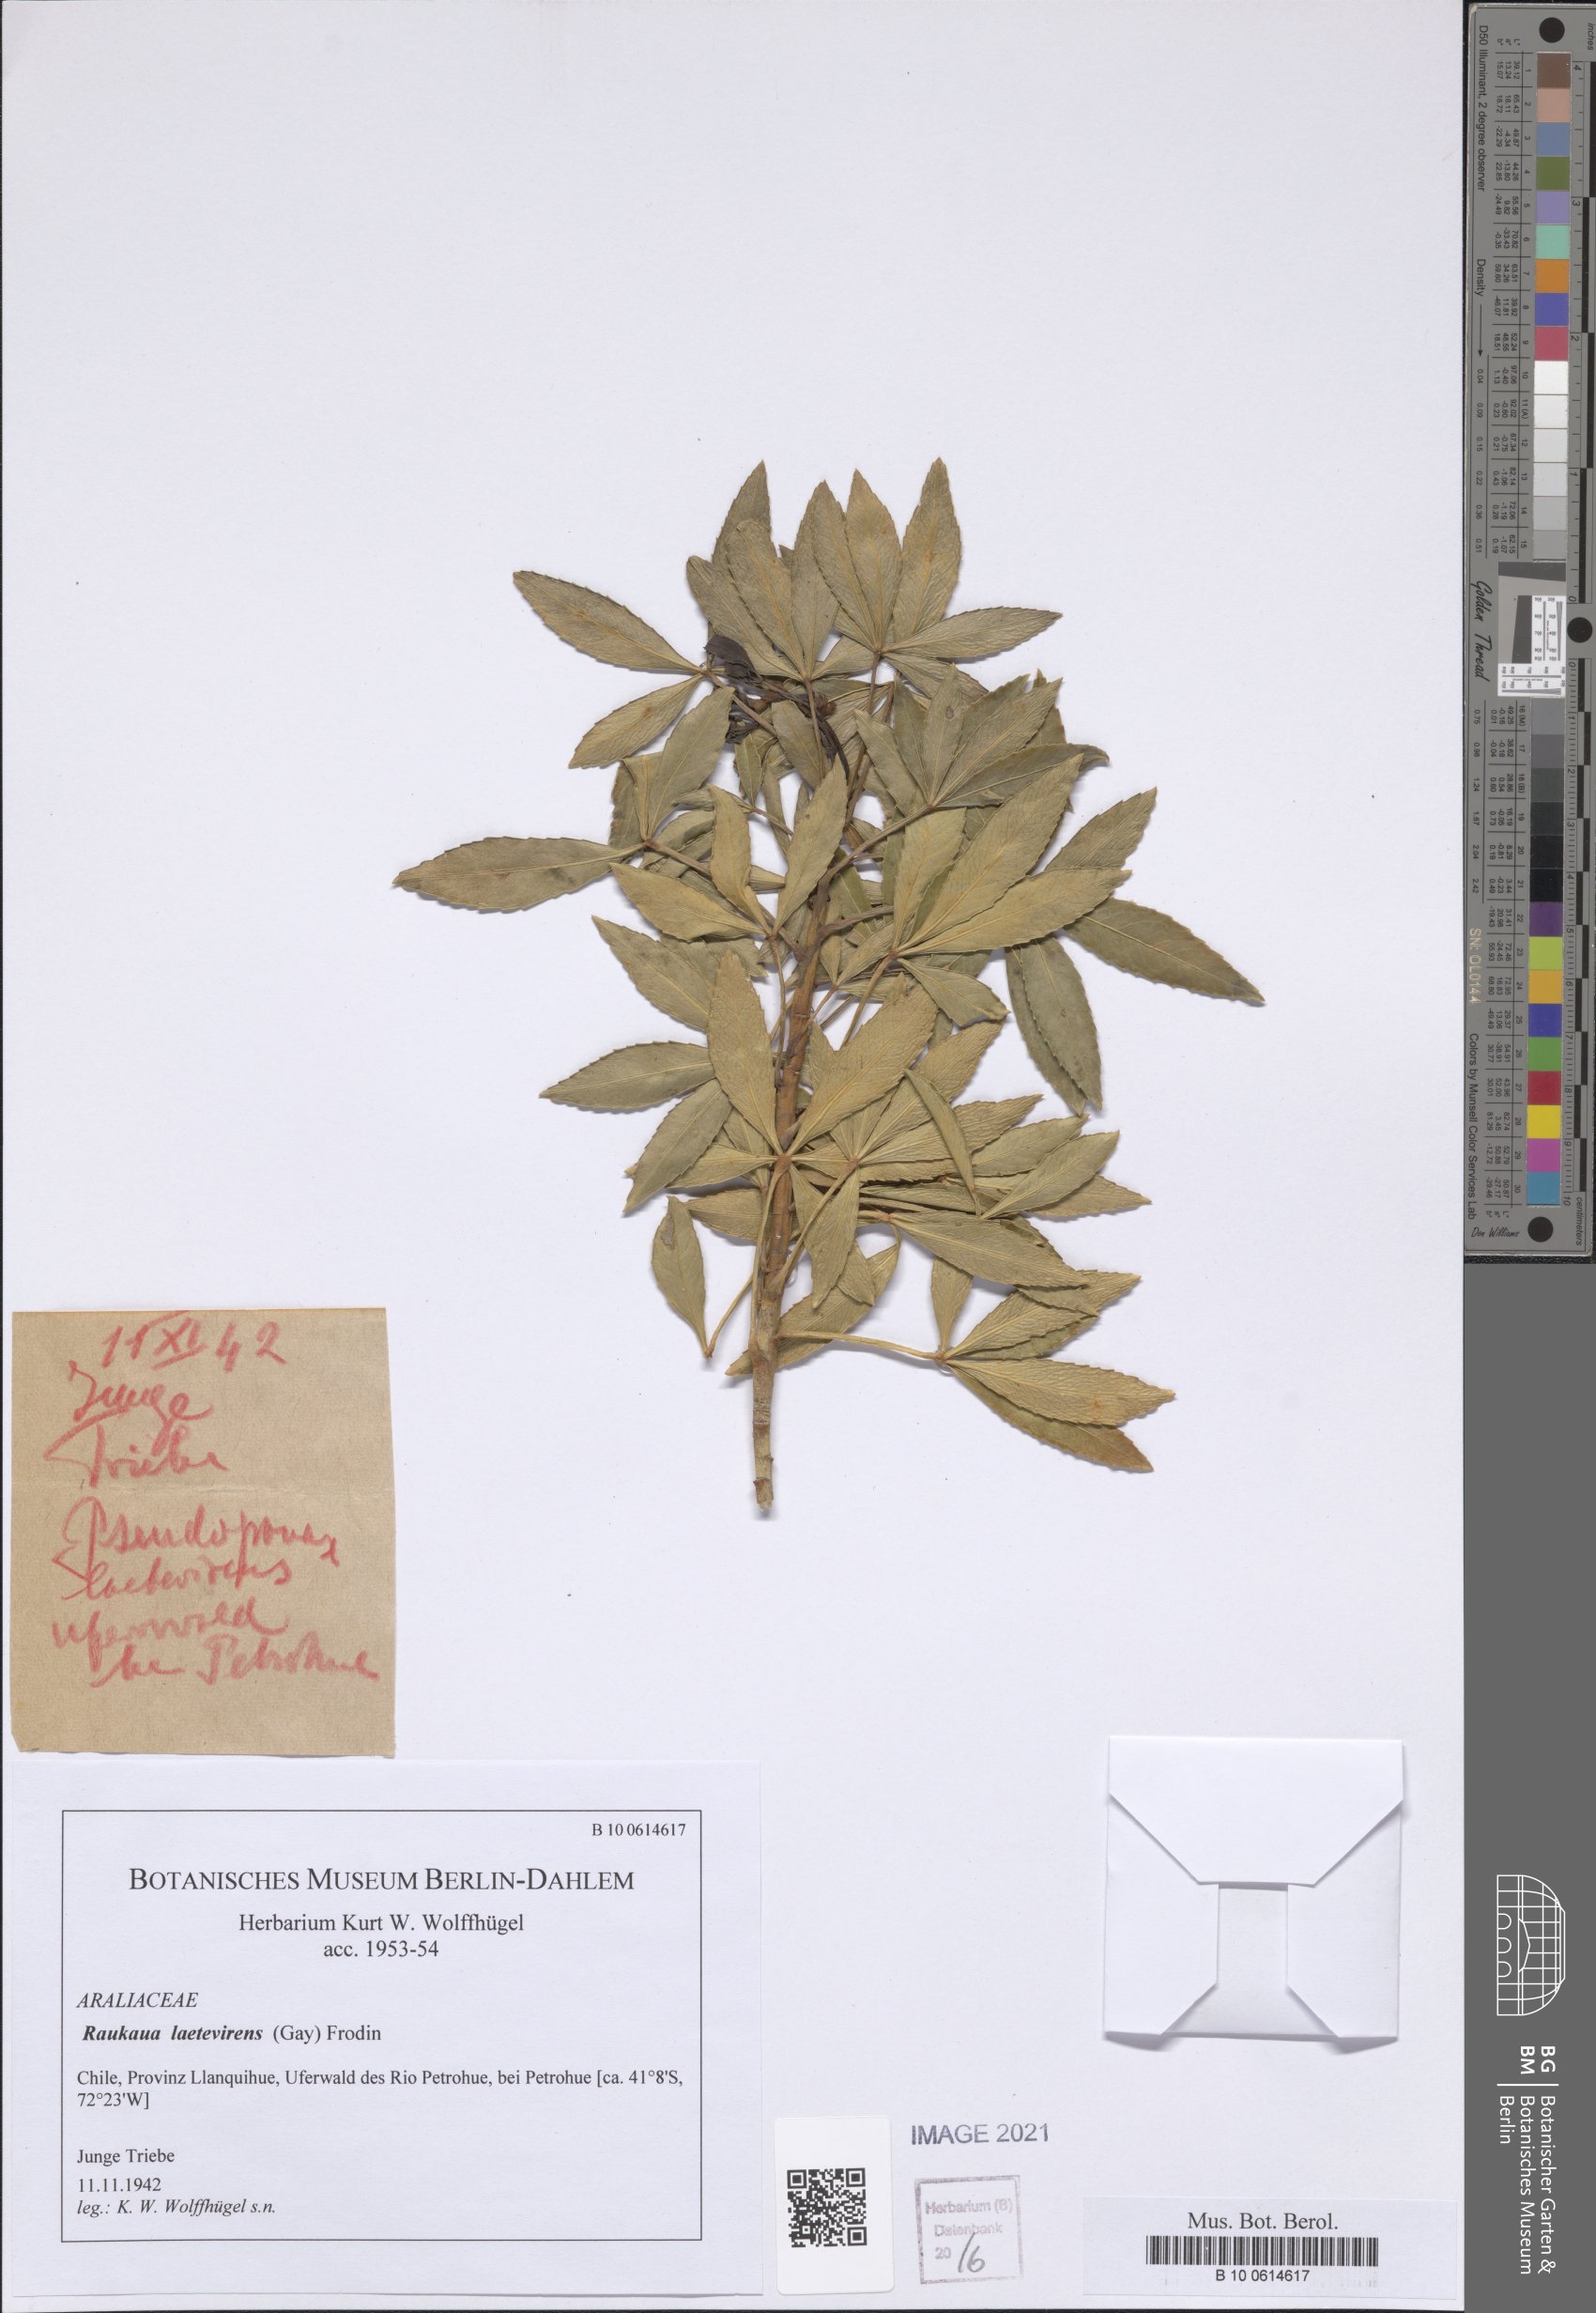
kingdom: Plantae
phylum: Tracheophyta
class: Magnoliopsida
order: Apiales
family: Araliaceae
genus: Raukaua
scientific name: Raukaua laetevirens
